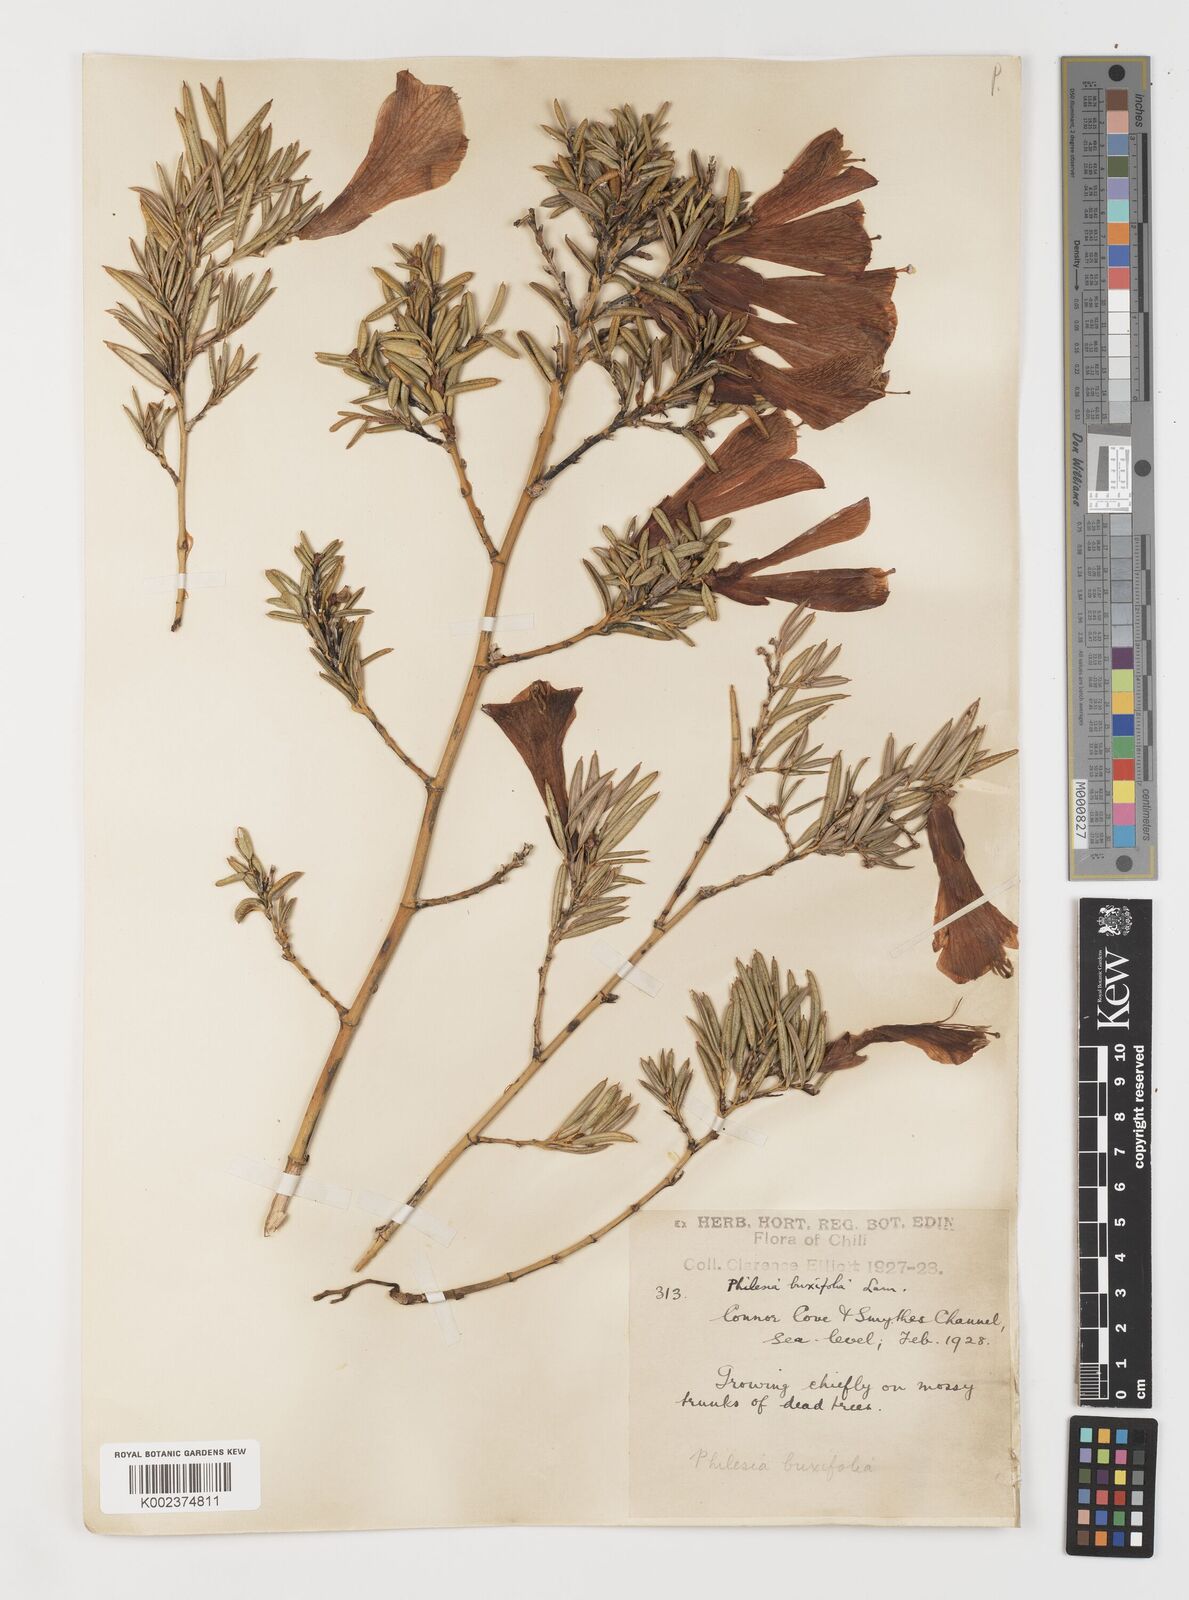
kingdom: Plantae
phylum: Tracheophyta
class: Liliopsida
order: Liliales
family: Philesiaceae
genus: Philesia
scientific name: Philesia magellanica
